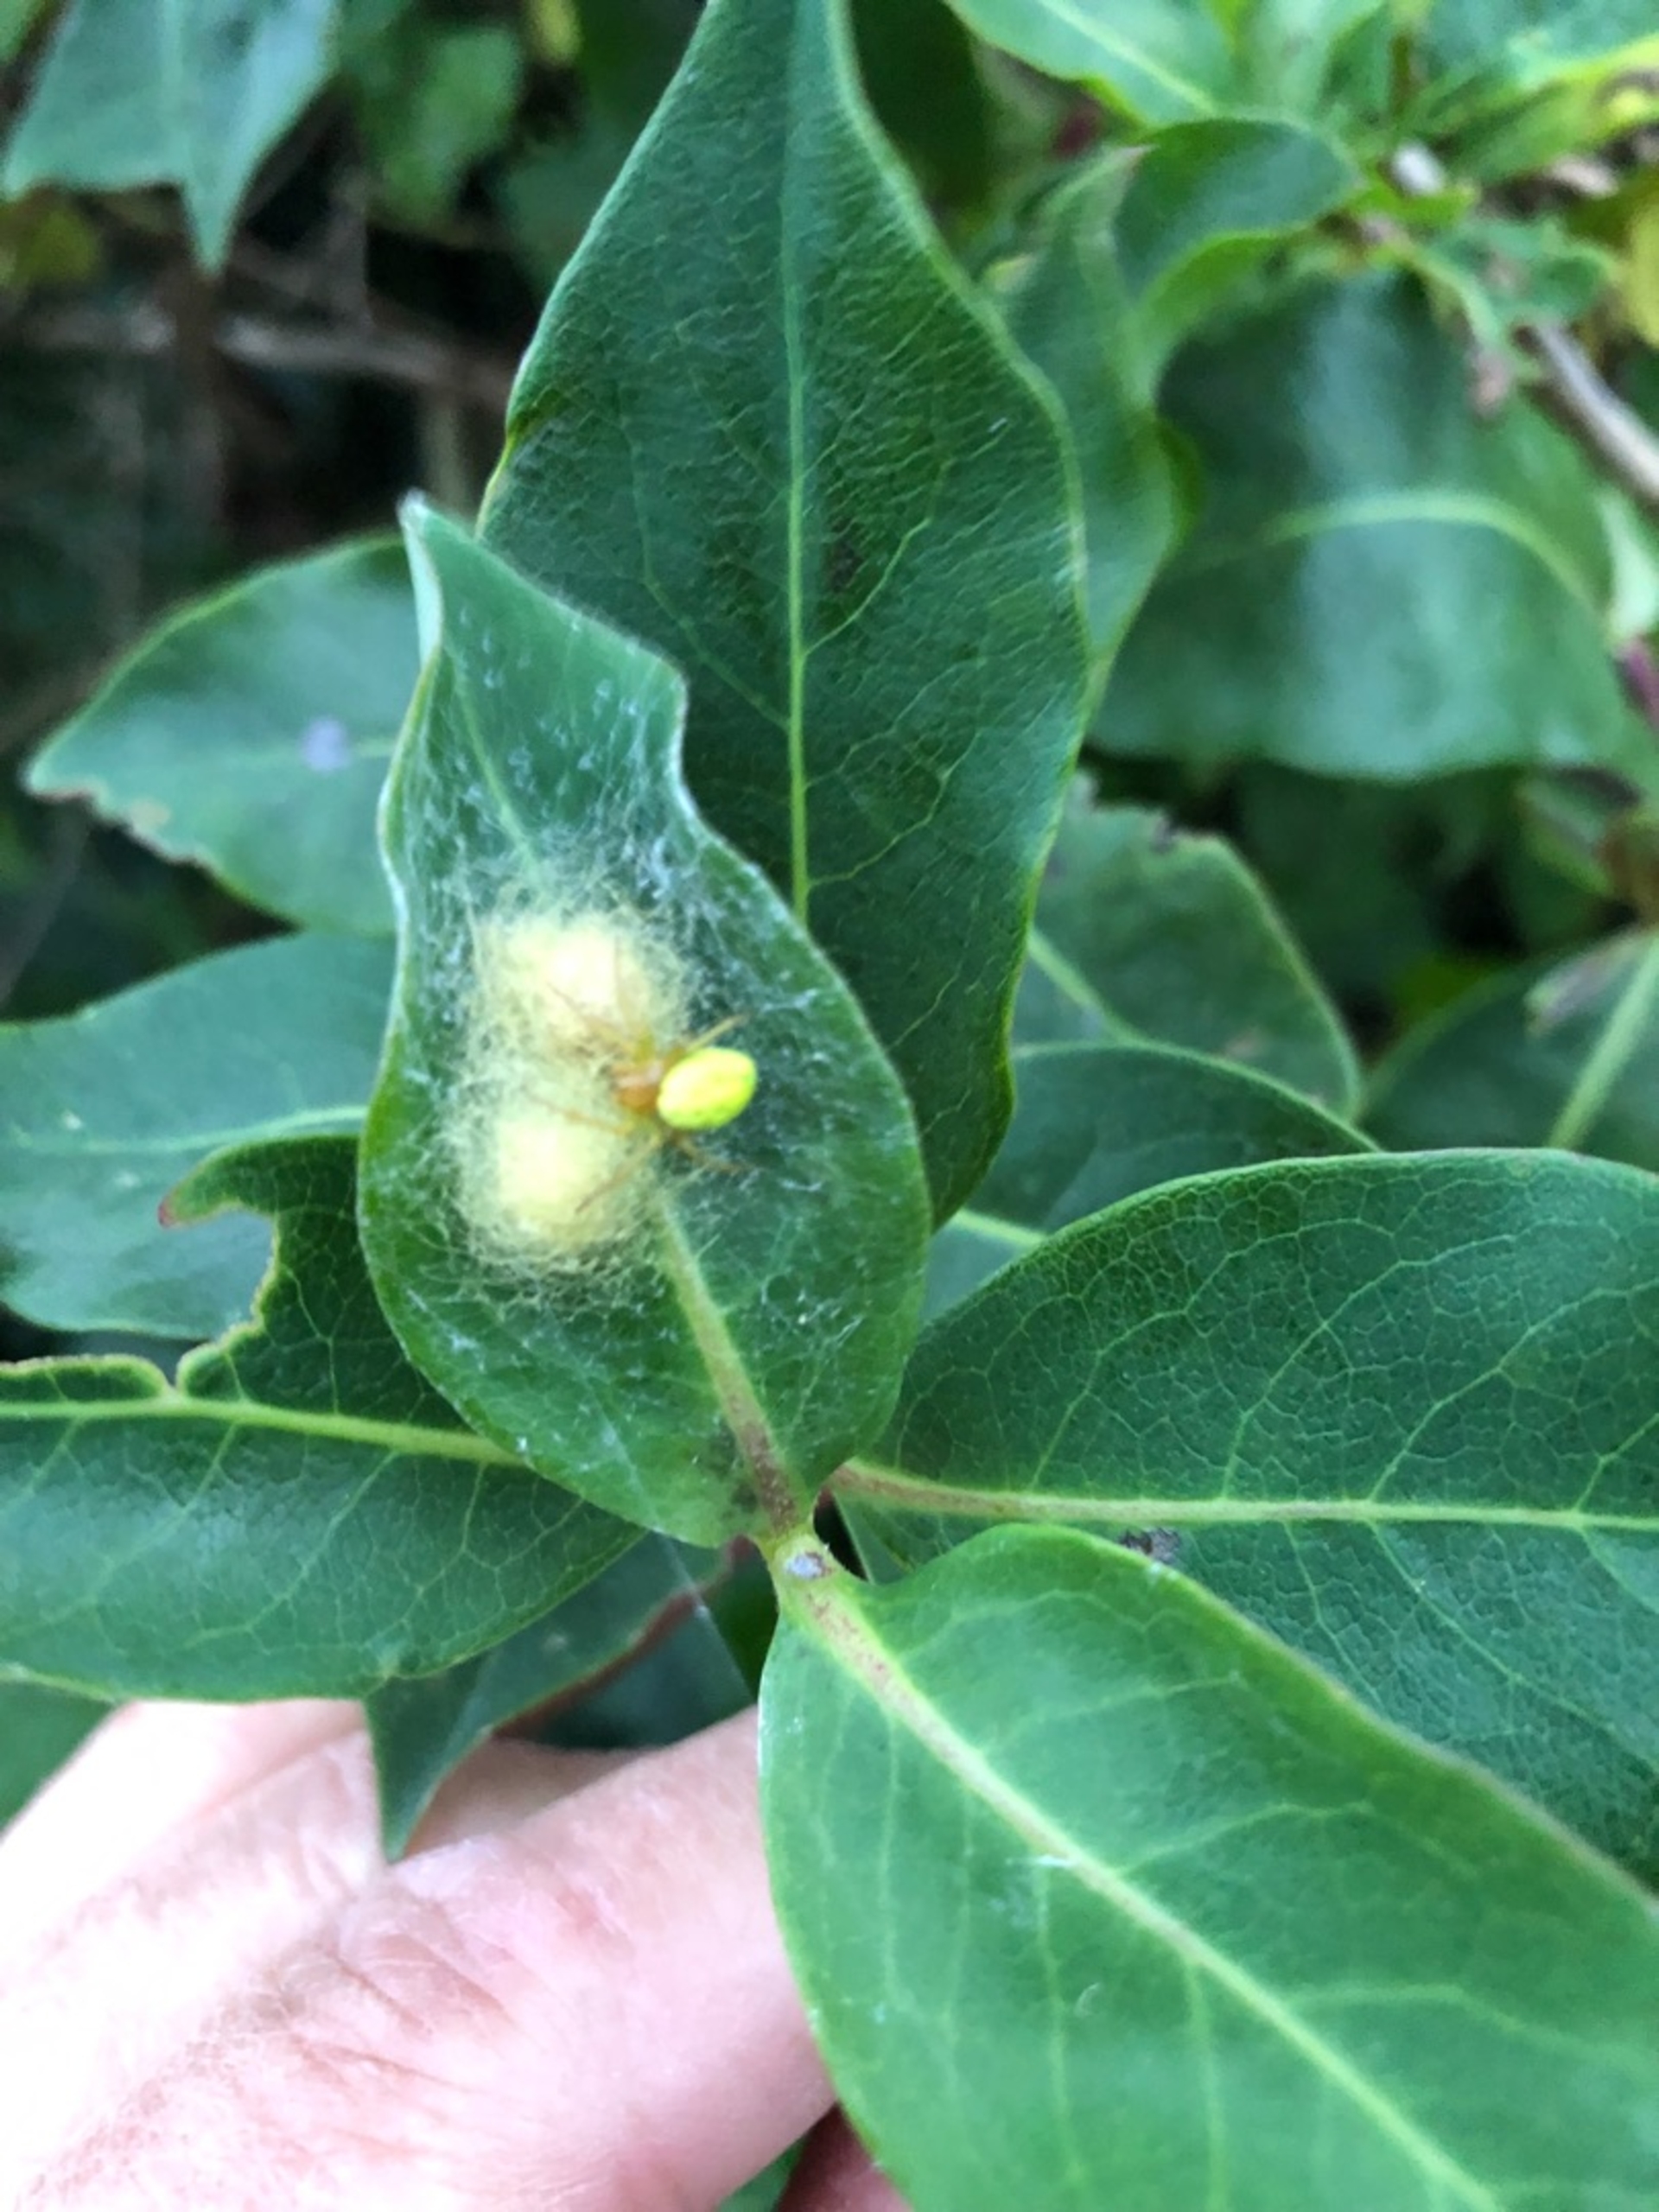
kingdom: Animalia
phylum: Arthropoda
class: Arachnida
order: Araneae
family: Araneidae
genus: Araniella
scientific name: Araniella
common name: Agurkeedderkopslægten
